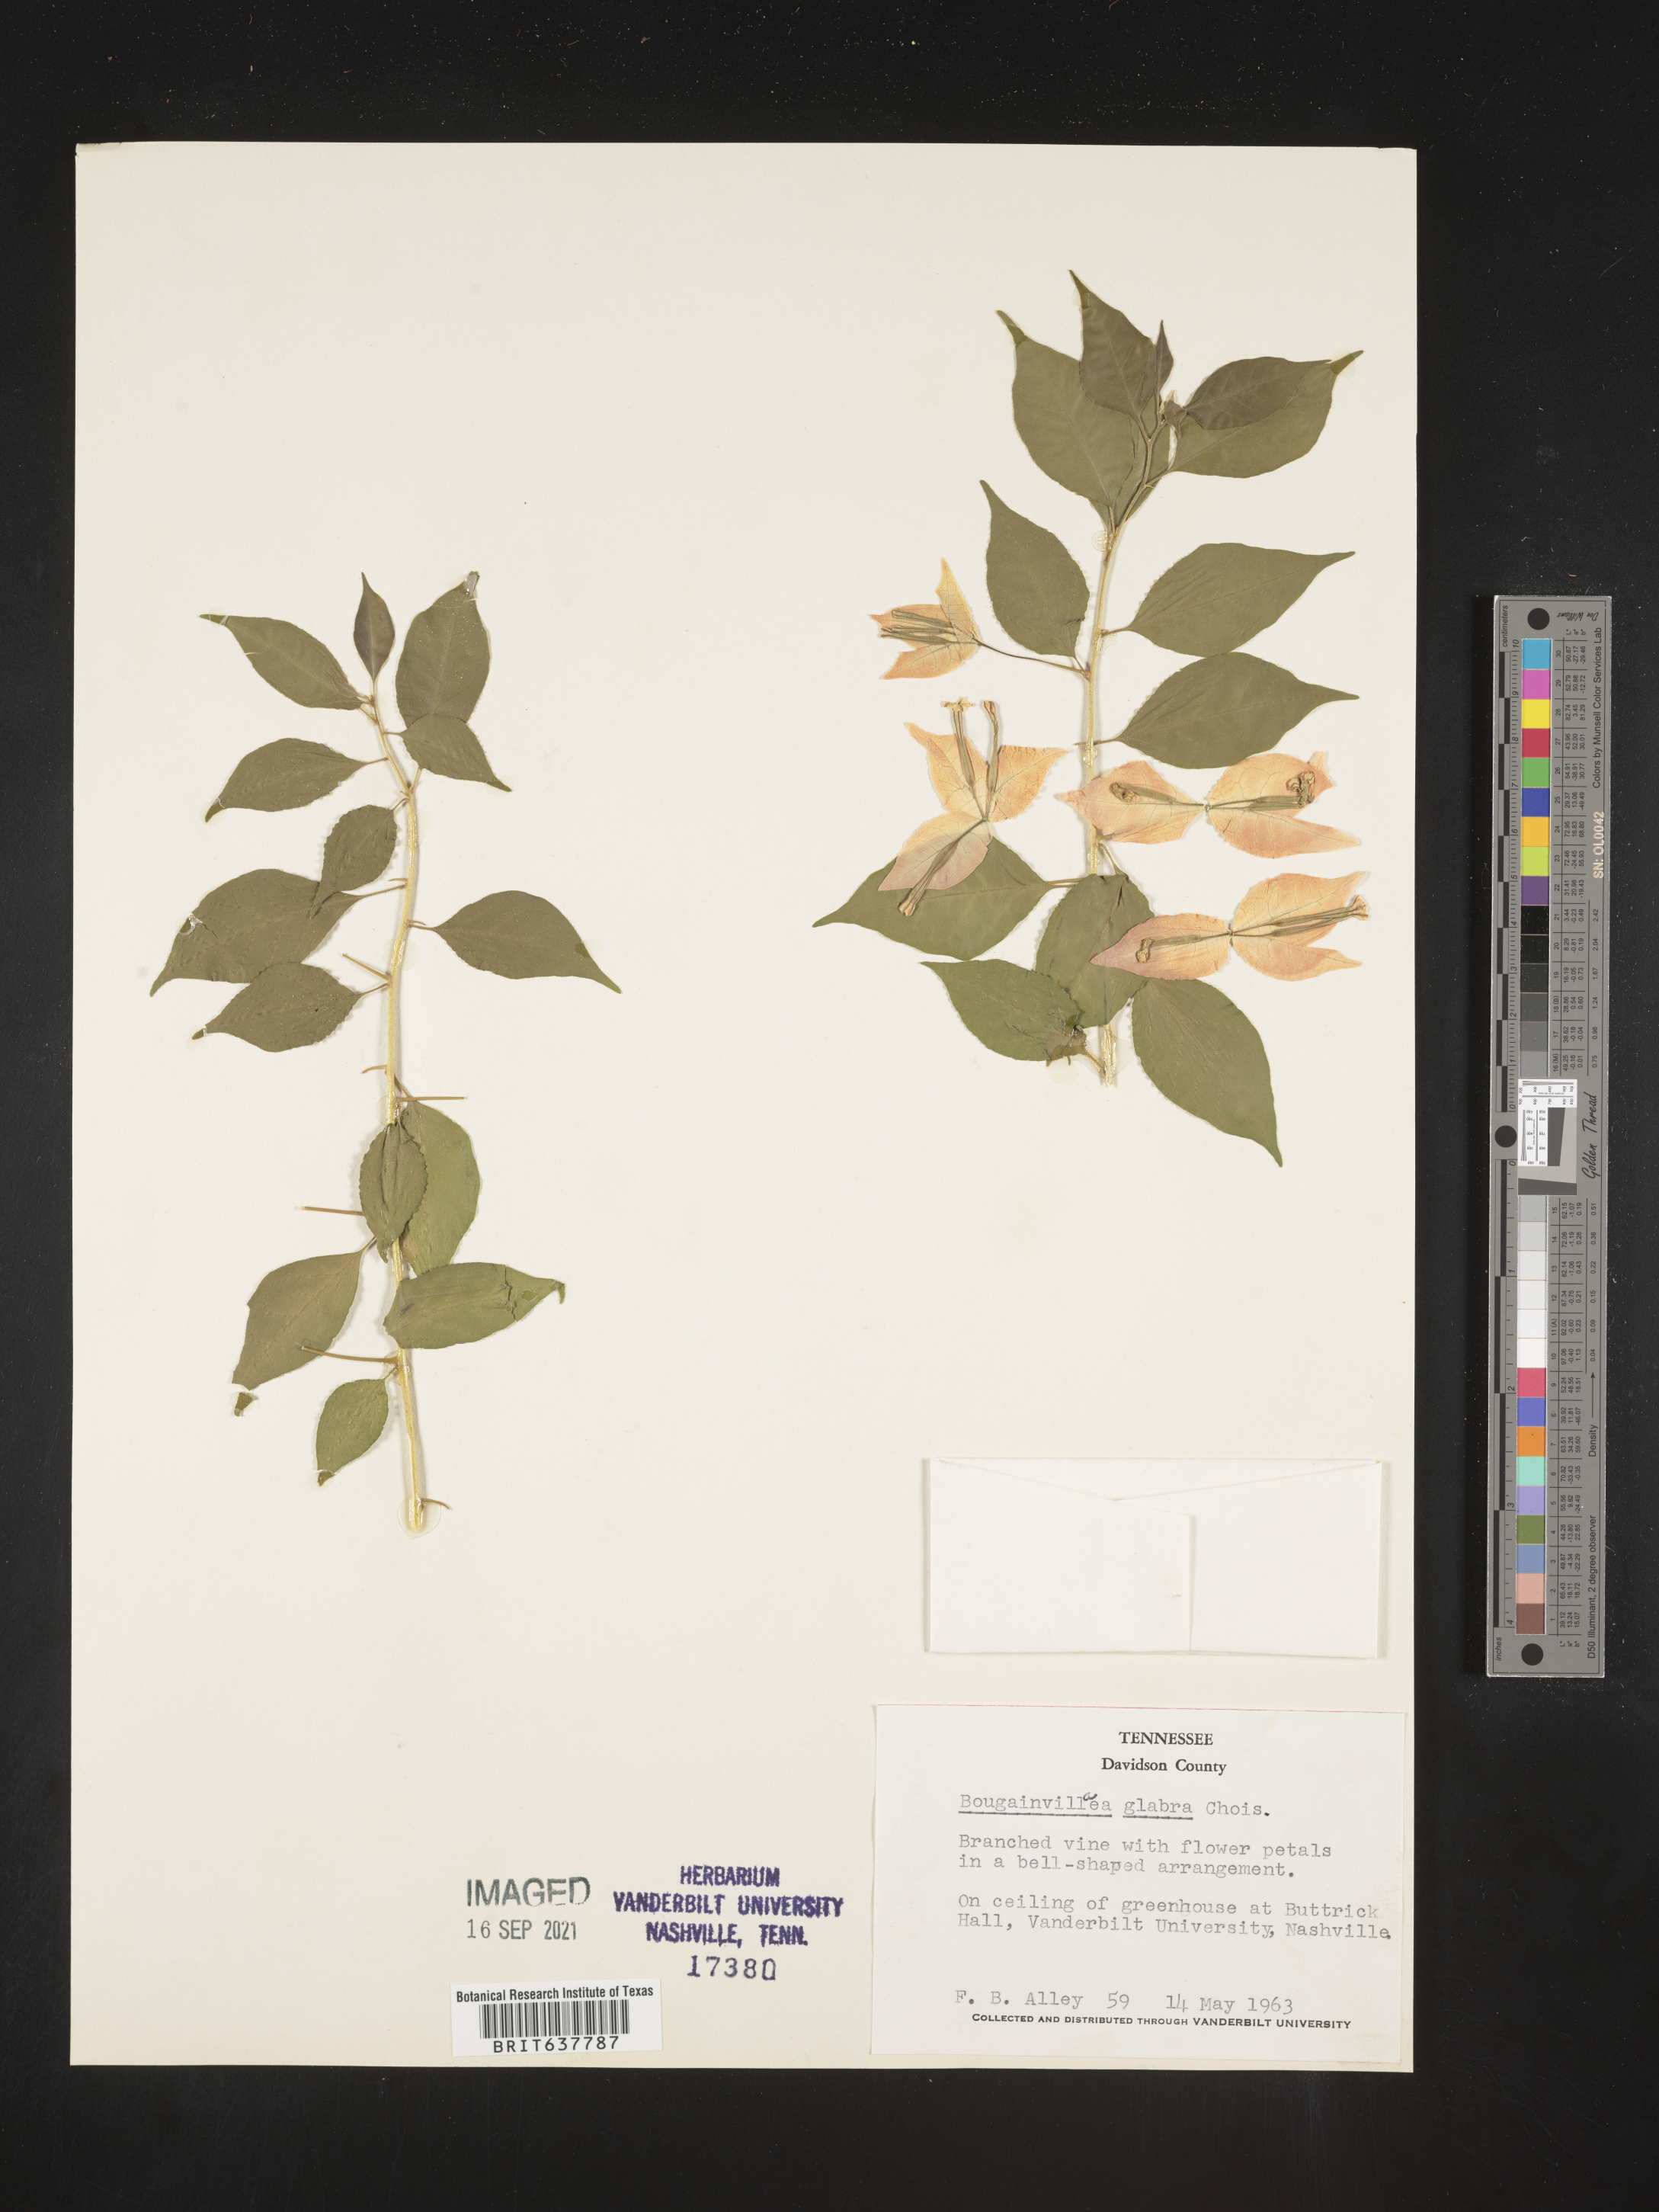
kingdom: Plantae
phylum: Tracheophyta
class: Magnoliopsida
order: Caryophyllales
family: Nyctaginaceae
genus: Bougainvillea
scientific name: Bougainvillea
